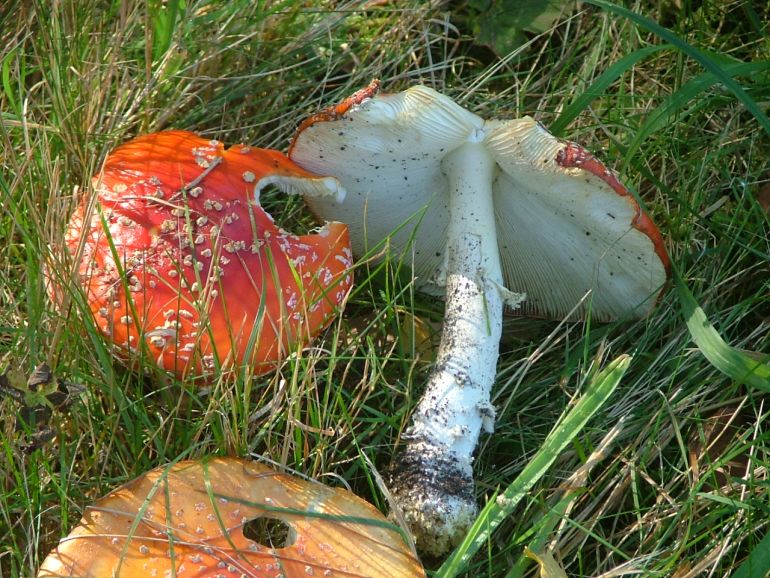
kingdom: Fungi
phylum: Basidiomycota
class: Agaricomycetes
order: Agaricales
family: Amanitaceae
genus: Amanita
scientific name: Amanita muscaria
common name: rød fluesvamp
